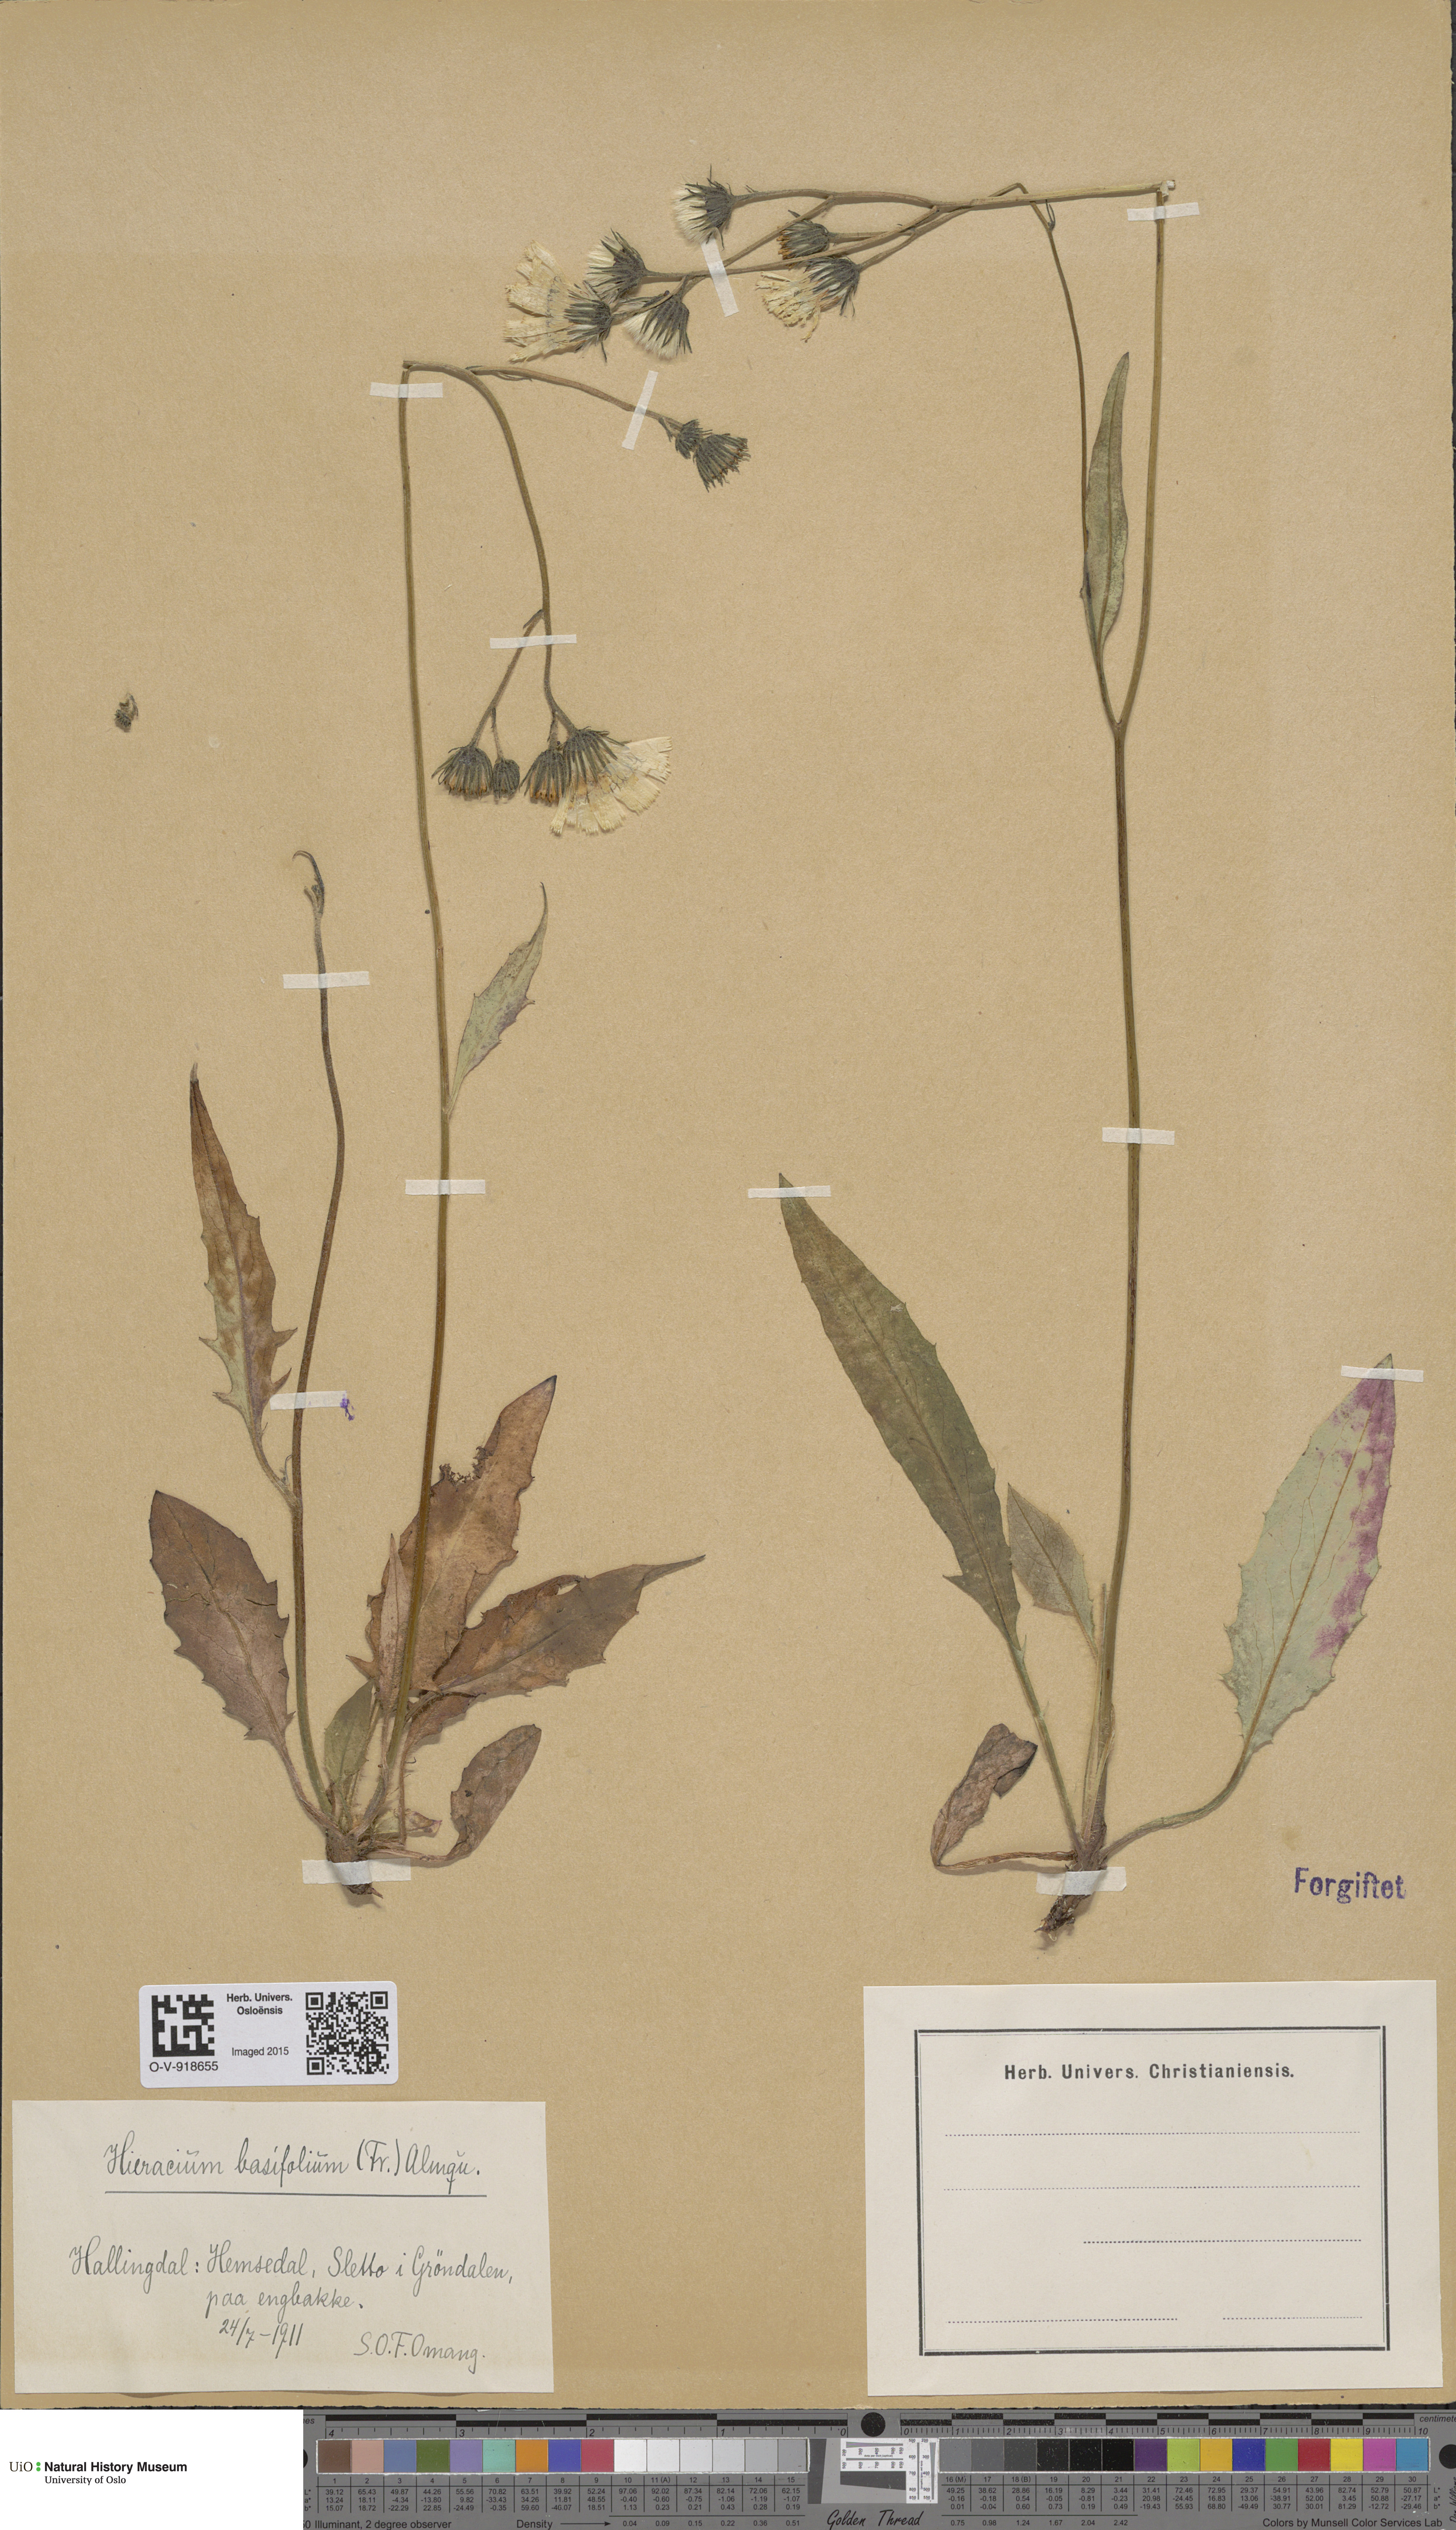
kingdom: Plantae
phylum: Tracheophyta
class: Magnoliopsida
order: Asterales
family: Asteraceae
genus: Hieracium
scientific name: Hieracium basifolium
